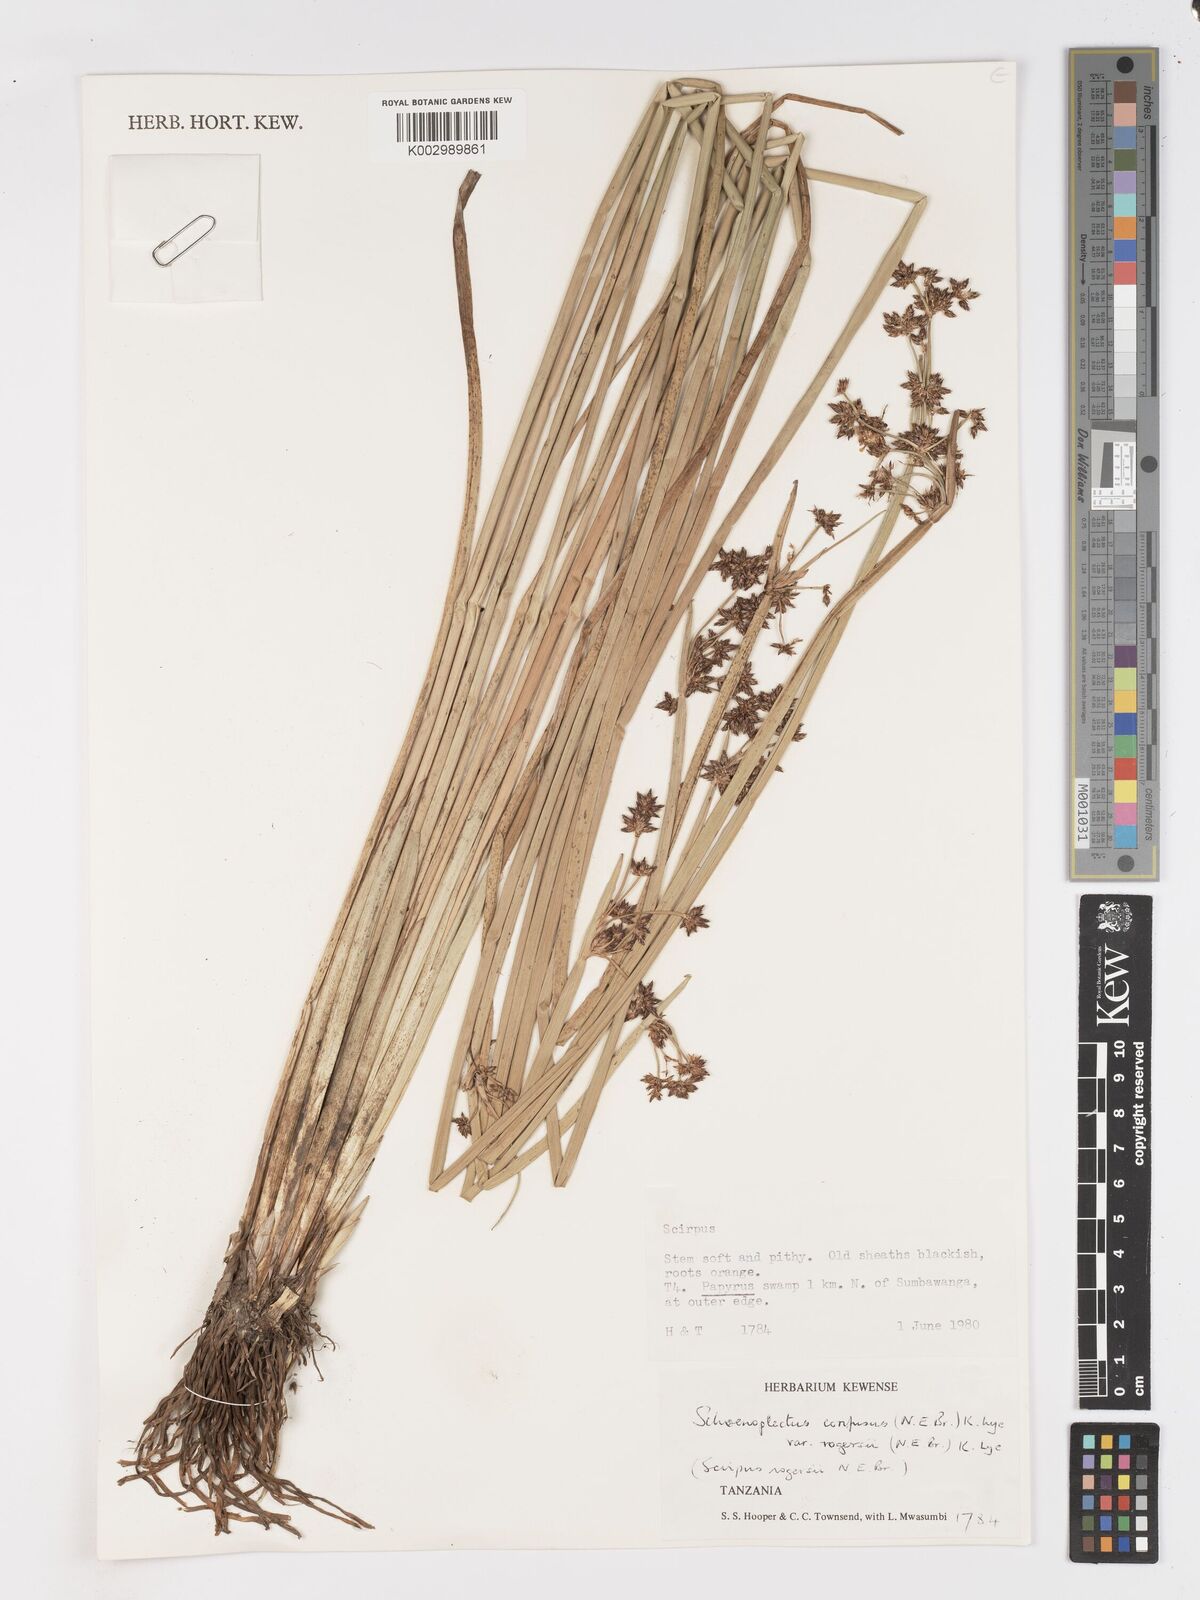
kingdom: Plantae
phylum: Tracheophyta
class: Liliopsida
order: Poales
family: Cyperaceae
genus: Schoenoplectiella
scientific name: Schoenoplectiella rogersii
